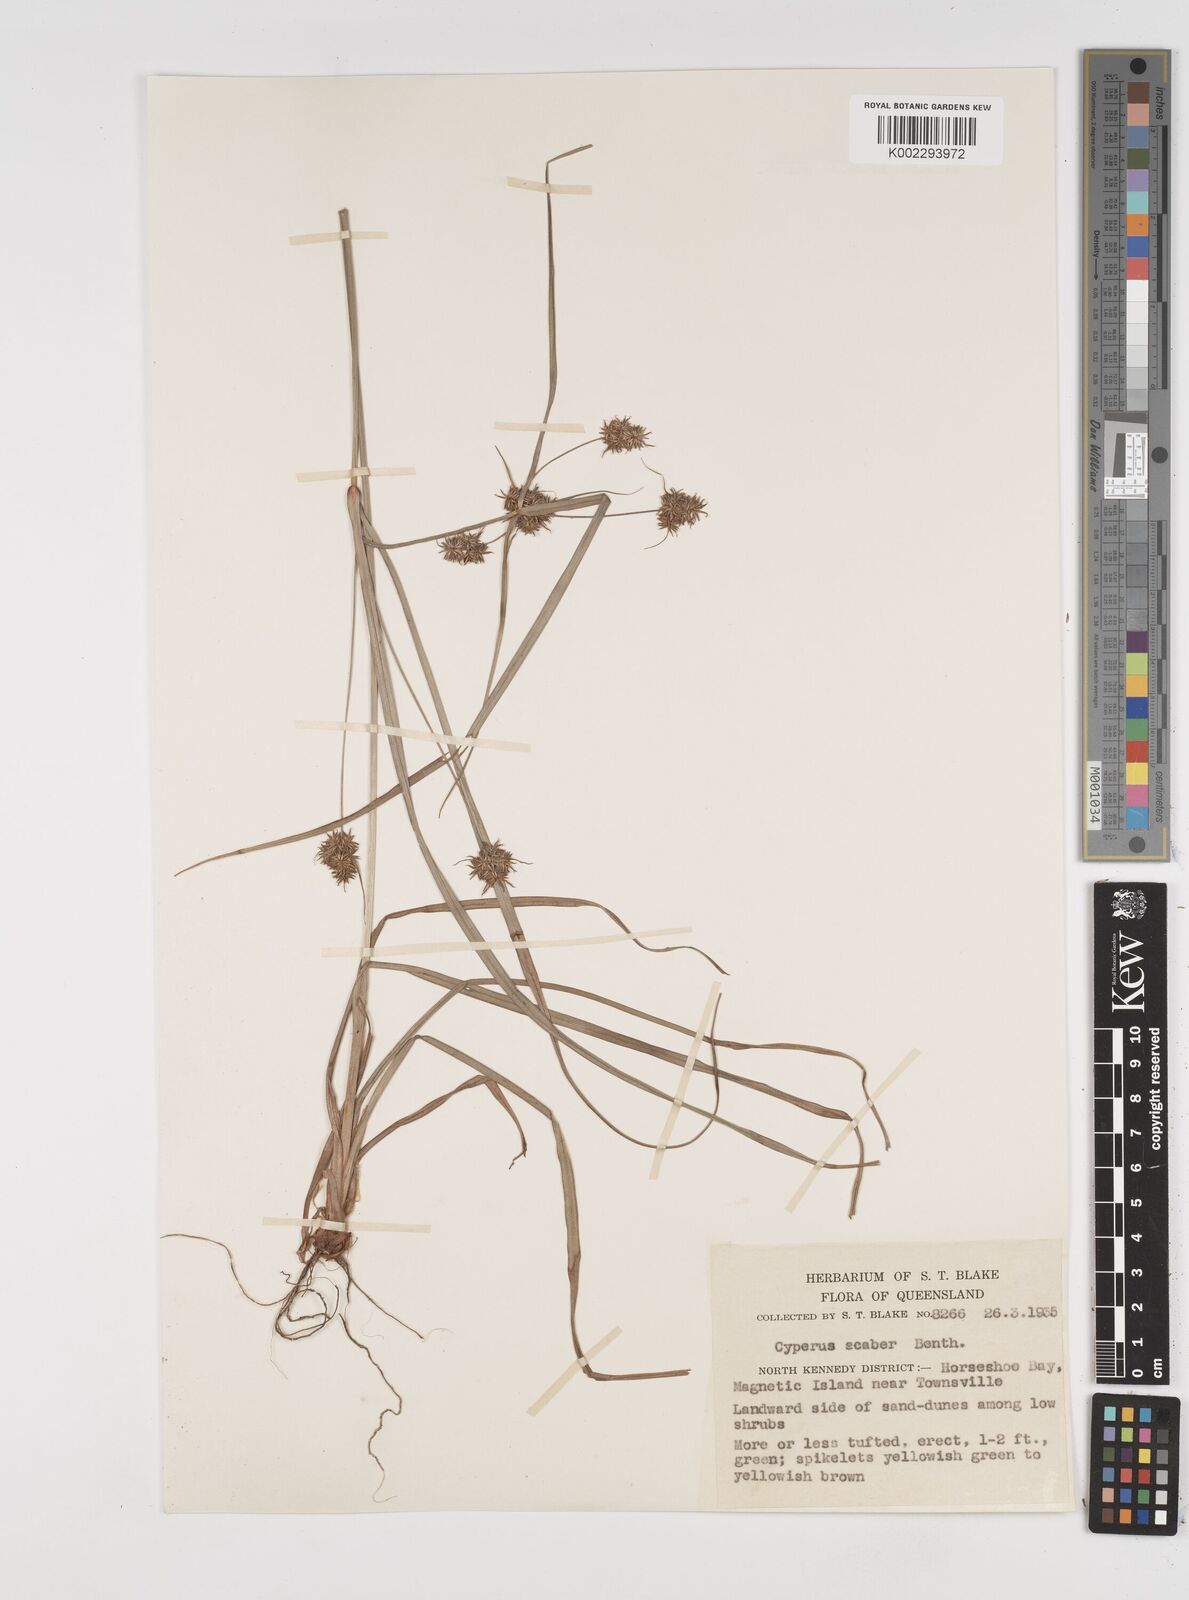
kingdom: Plantae
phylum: Tracheophyta
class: Liliopsida
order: Poales
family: Cyperaceae
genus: Cyperus
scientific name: Cyperus scaber
